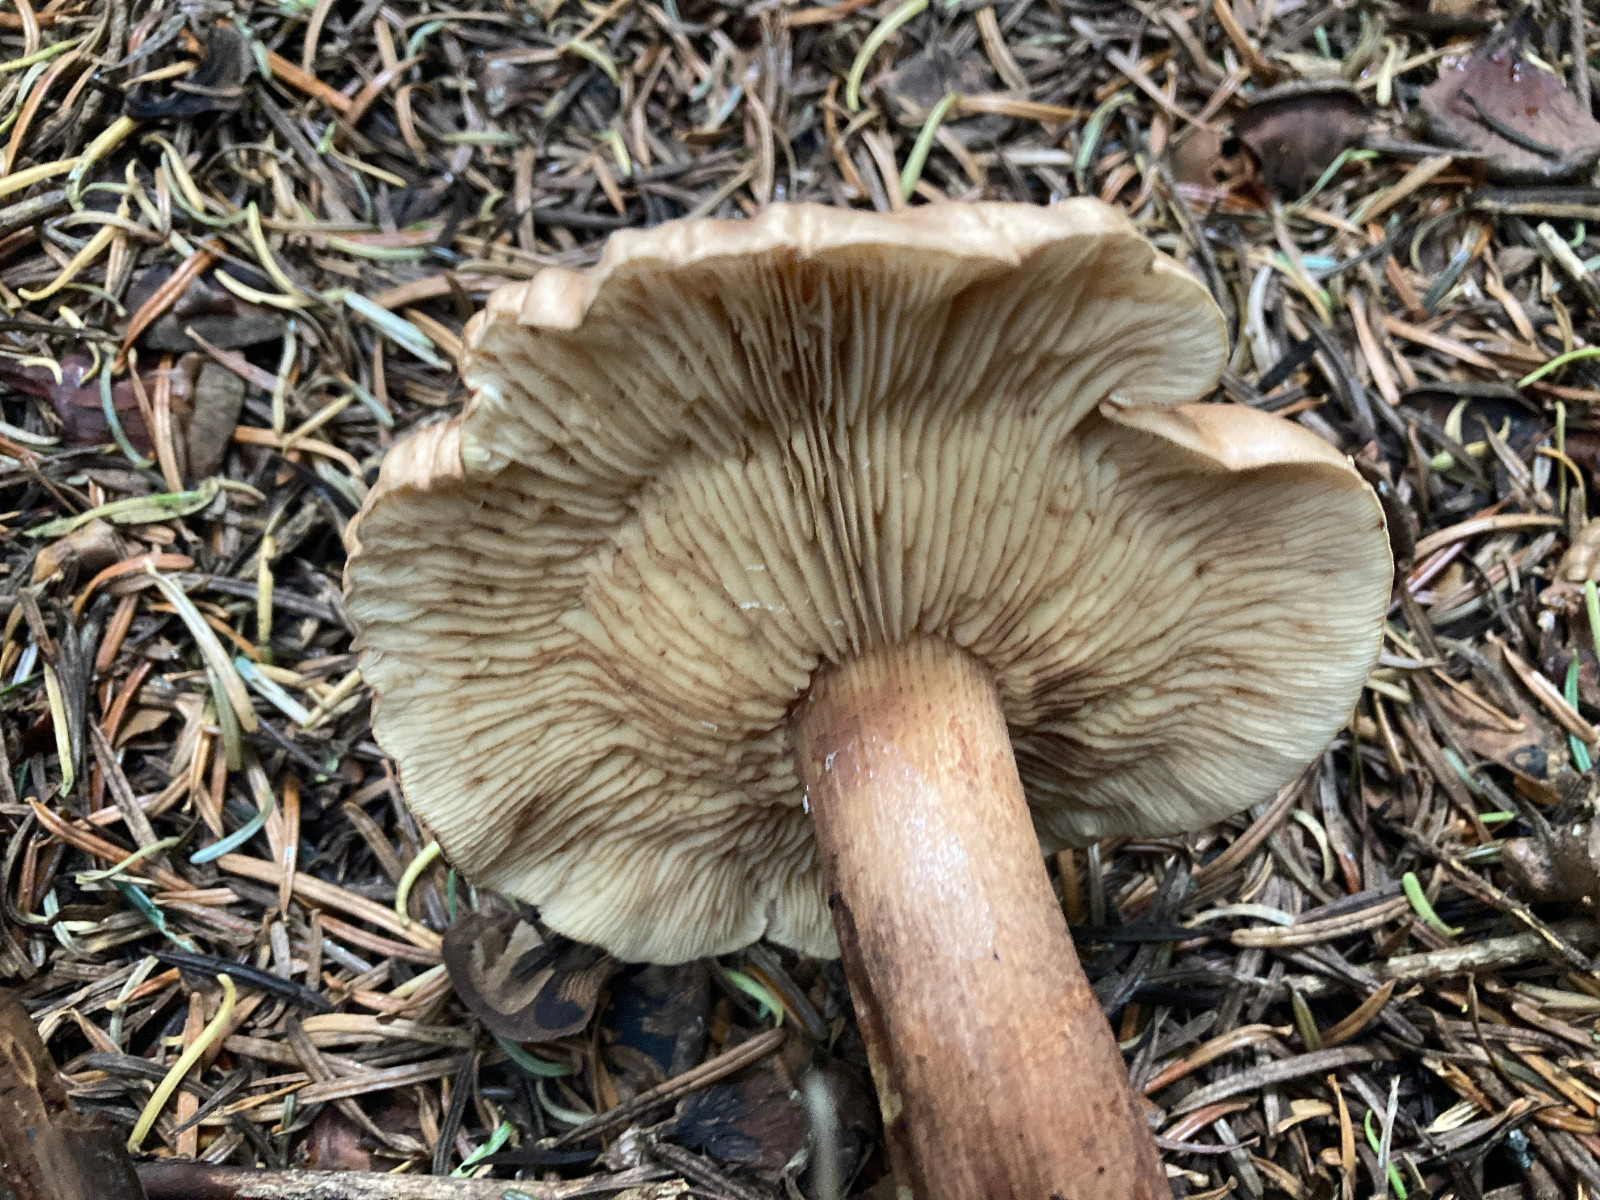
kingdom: Fungi
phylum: Basidiomycota
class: Agaricomycetes
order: Agaricales
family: Tricholomataceae
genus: Tricholoma
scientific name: Tricholoma fulvum
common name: birke-ridderhat
